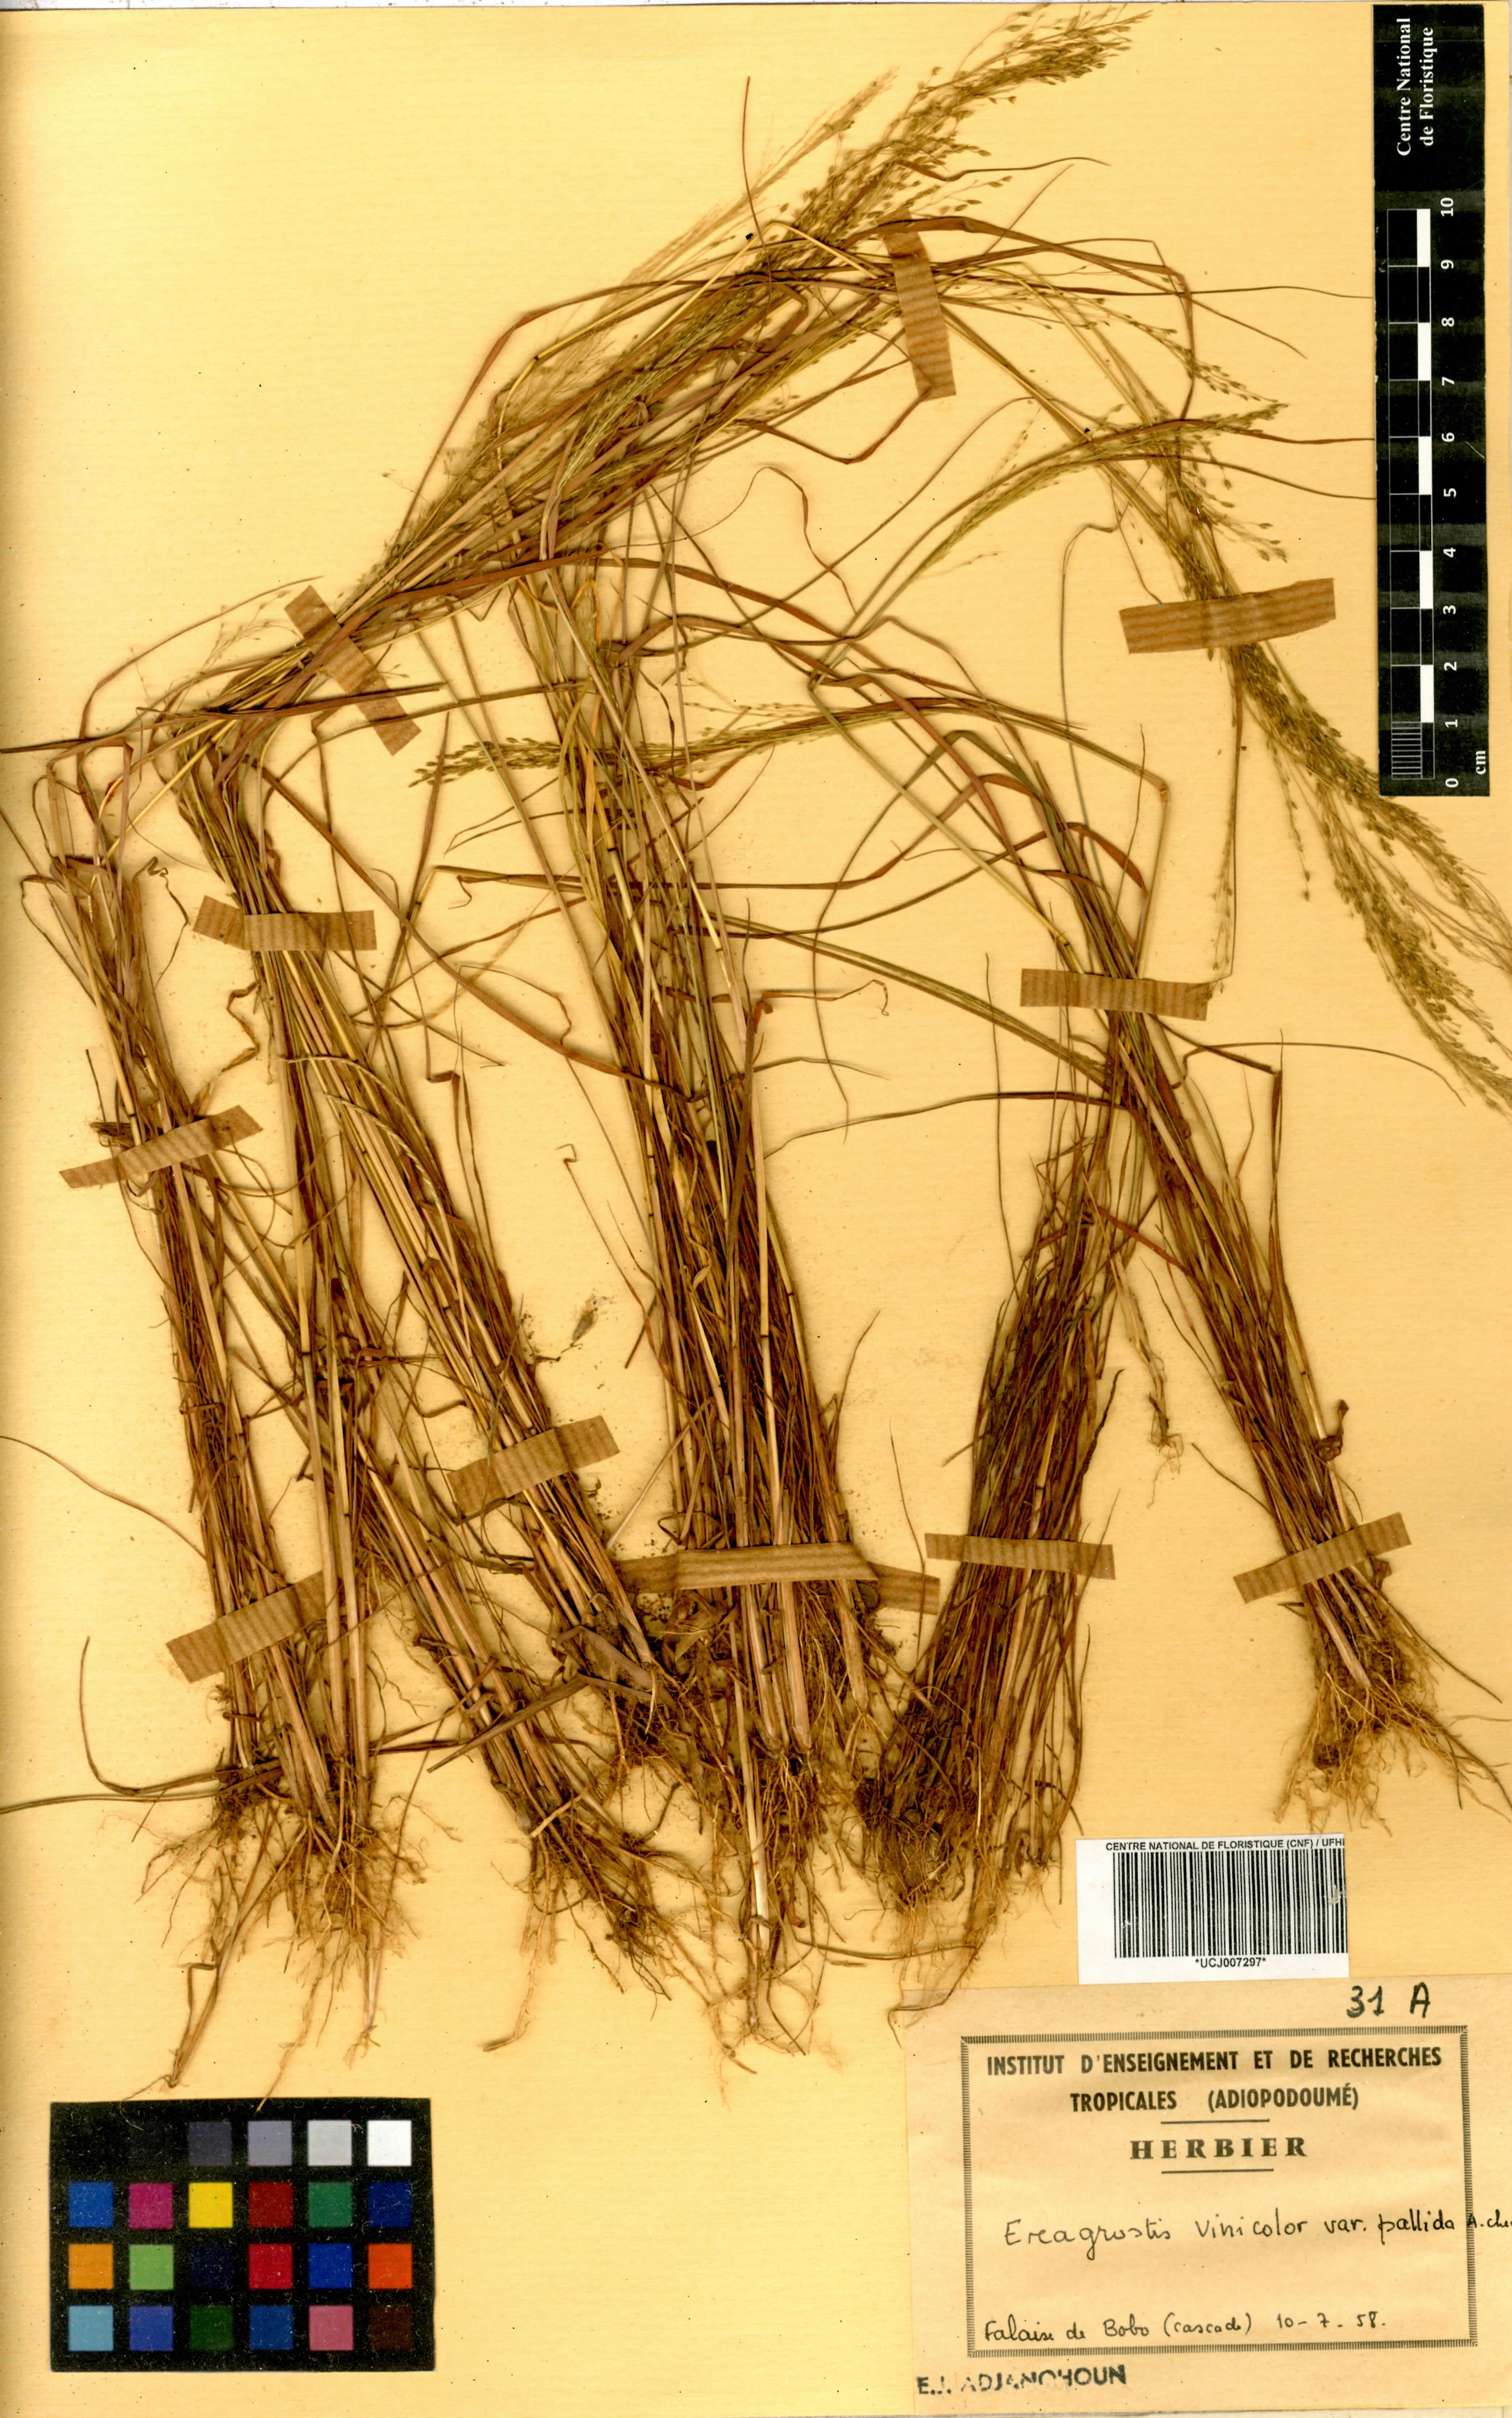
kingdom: Plantae
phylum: Tracheophyta
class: Liliopsida
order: Poales
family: Poaceae
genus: Eragrostis
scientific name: Eragrostis gangetica
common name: Slimflower lovegrass
